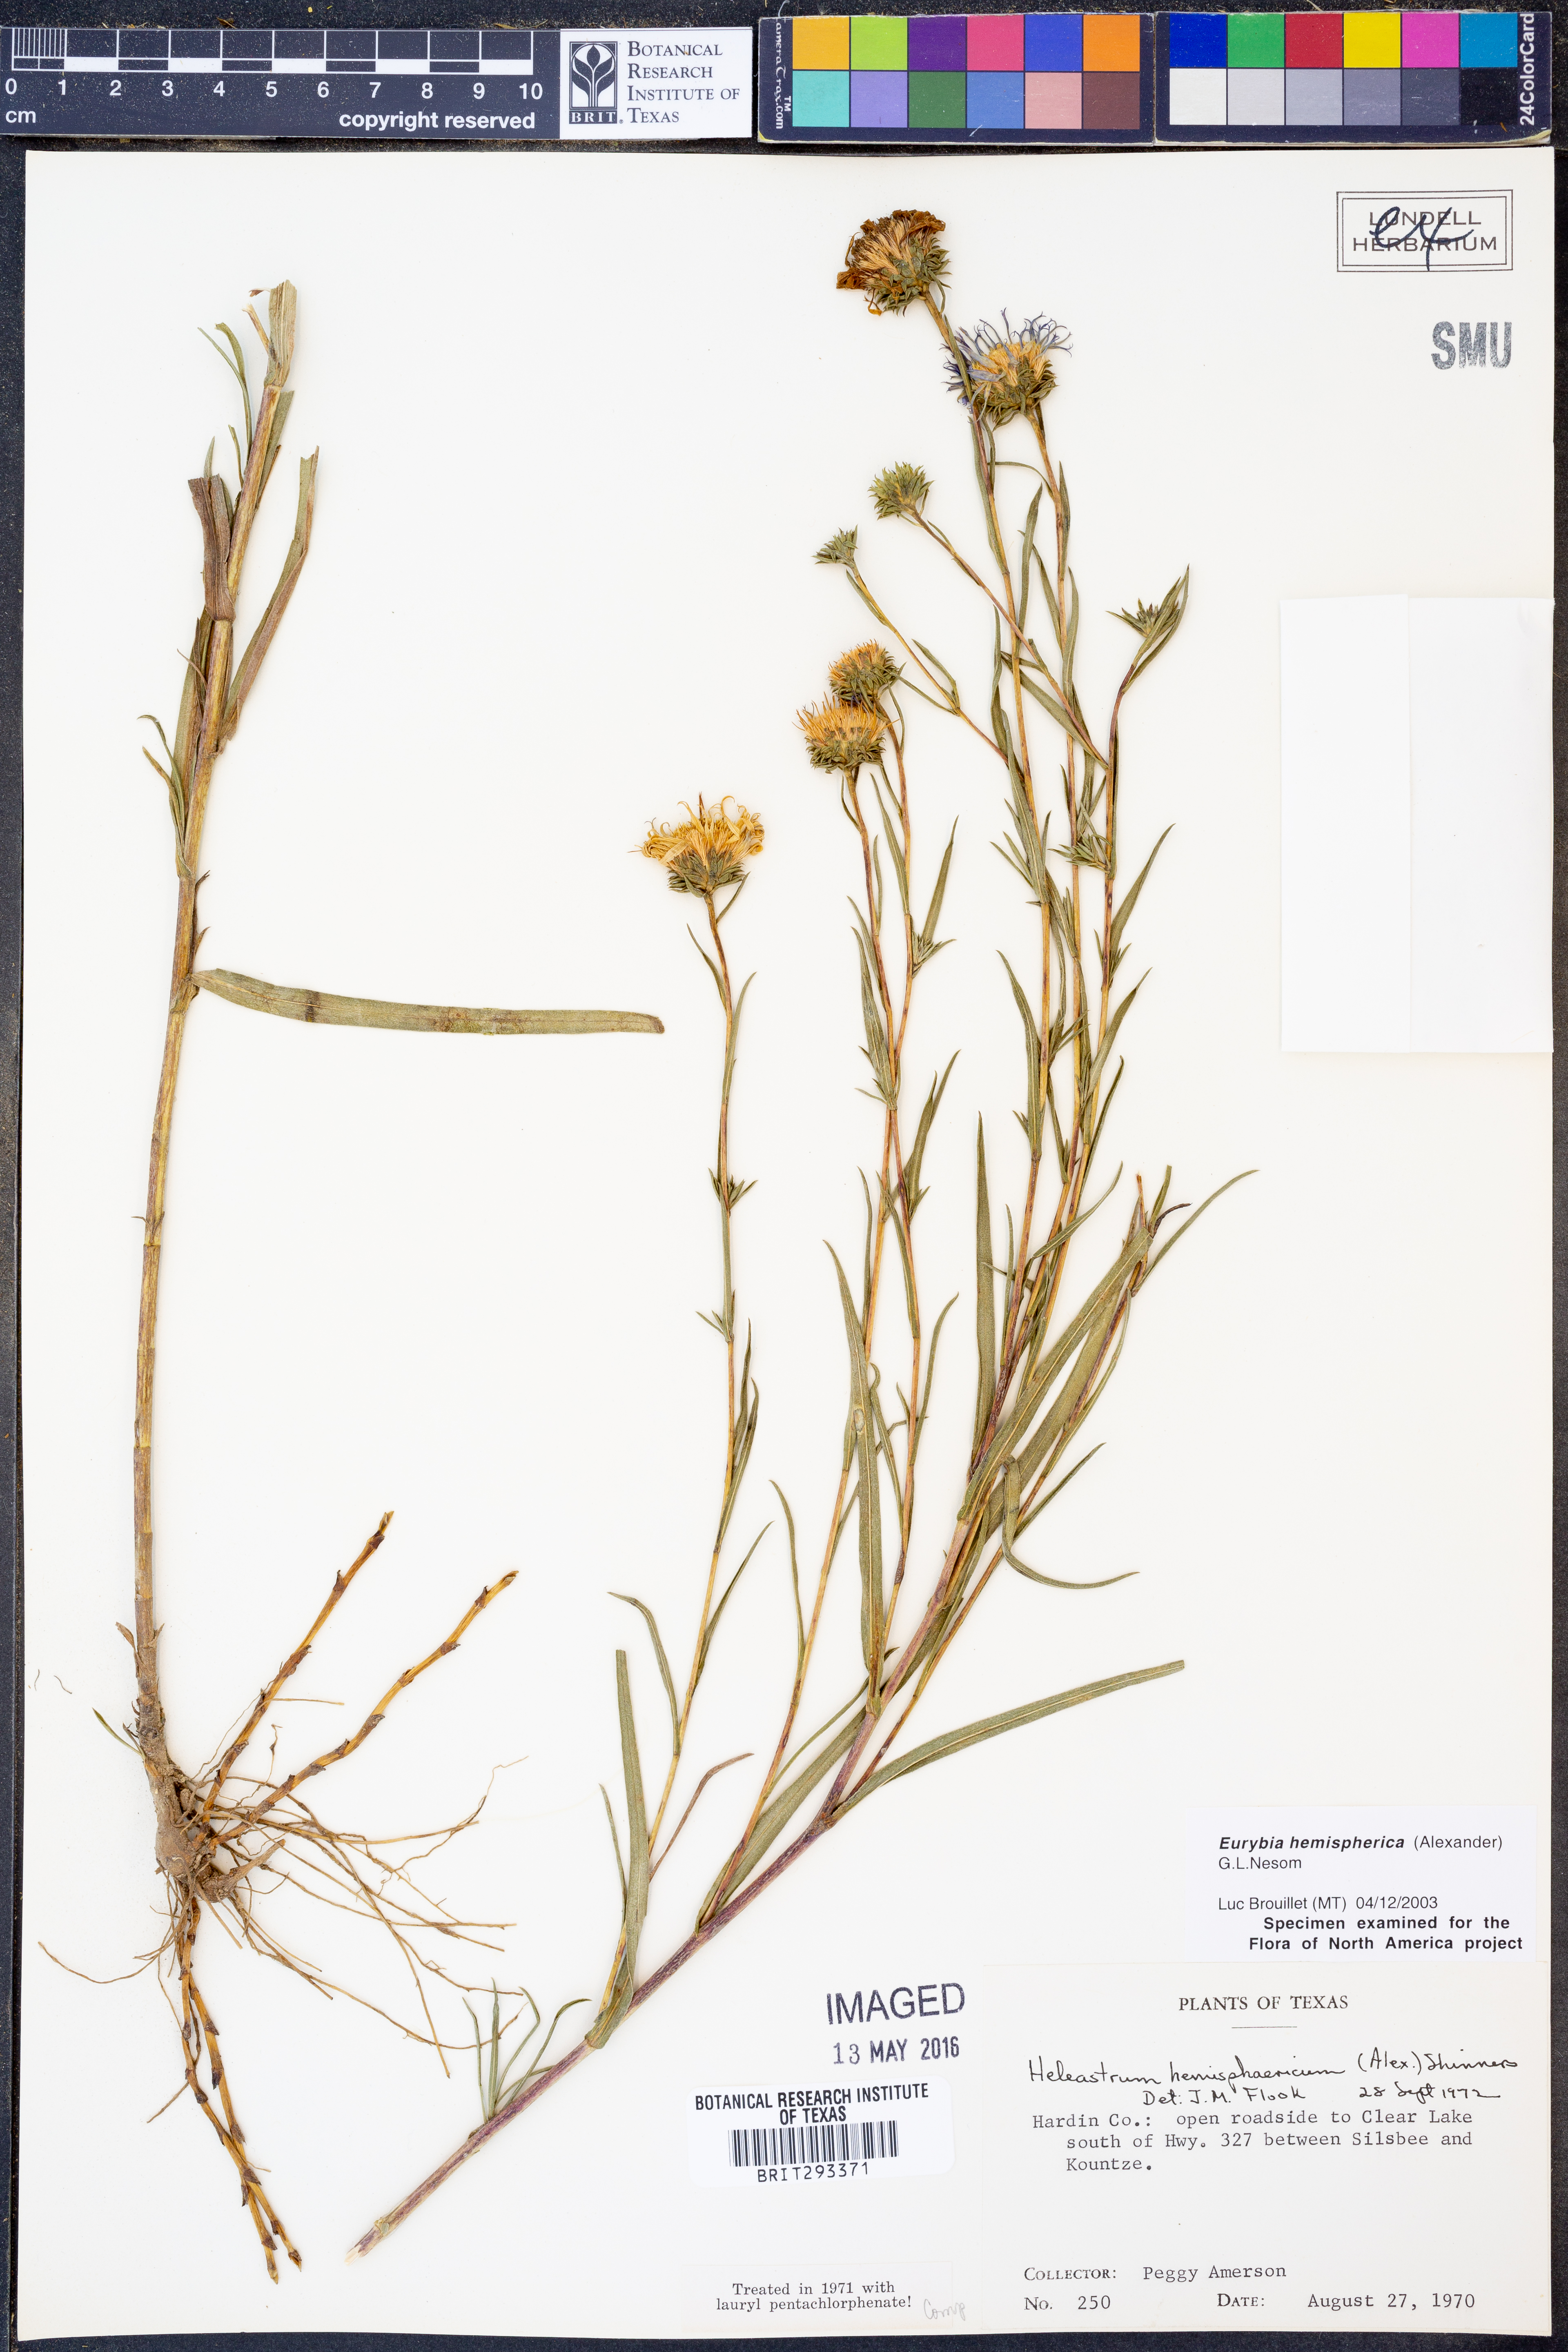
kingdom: Plantae
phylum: Tracheophyta
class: Magnoliopsida
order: Asterales
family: Asteraceae
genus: Eurybia
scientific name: Eurybia hemispherica
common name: Showy aster
